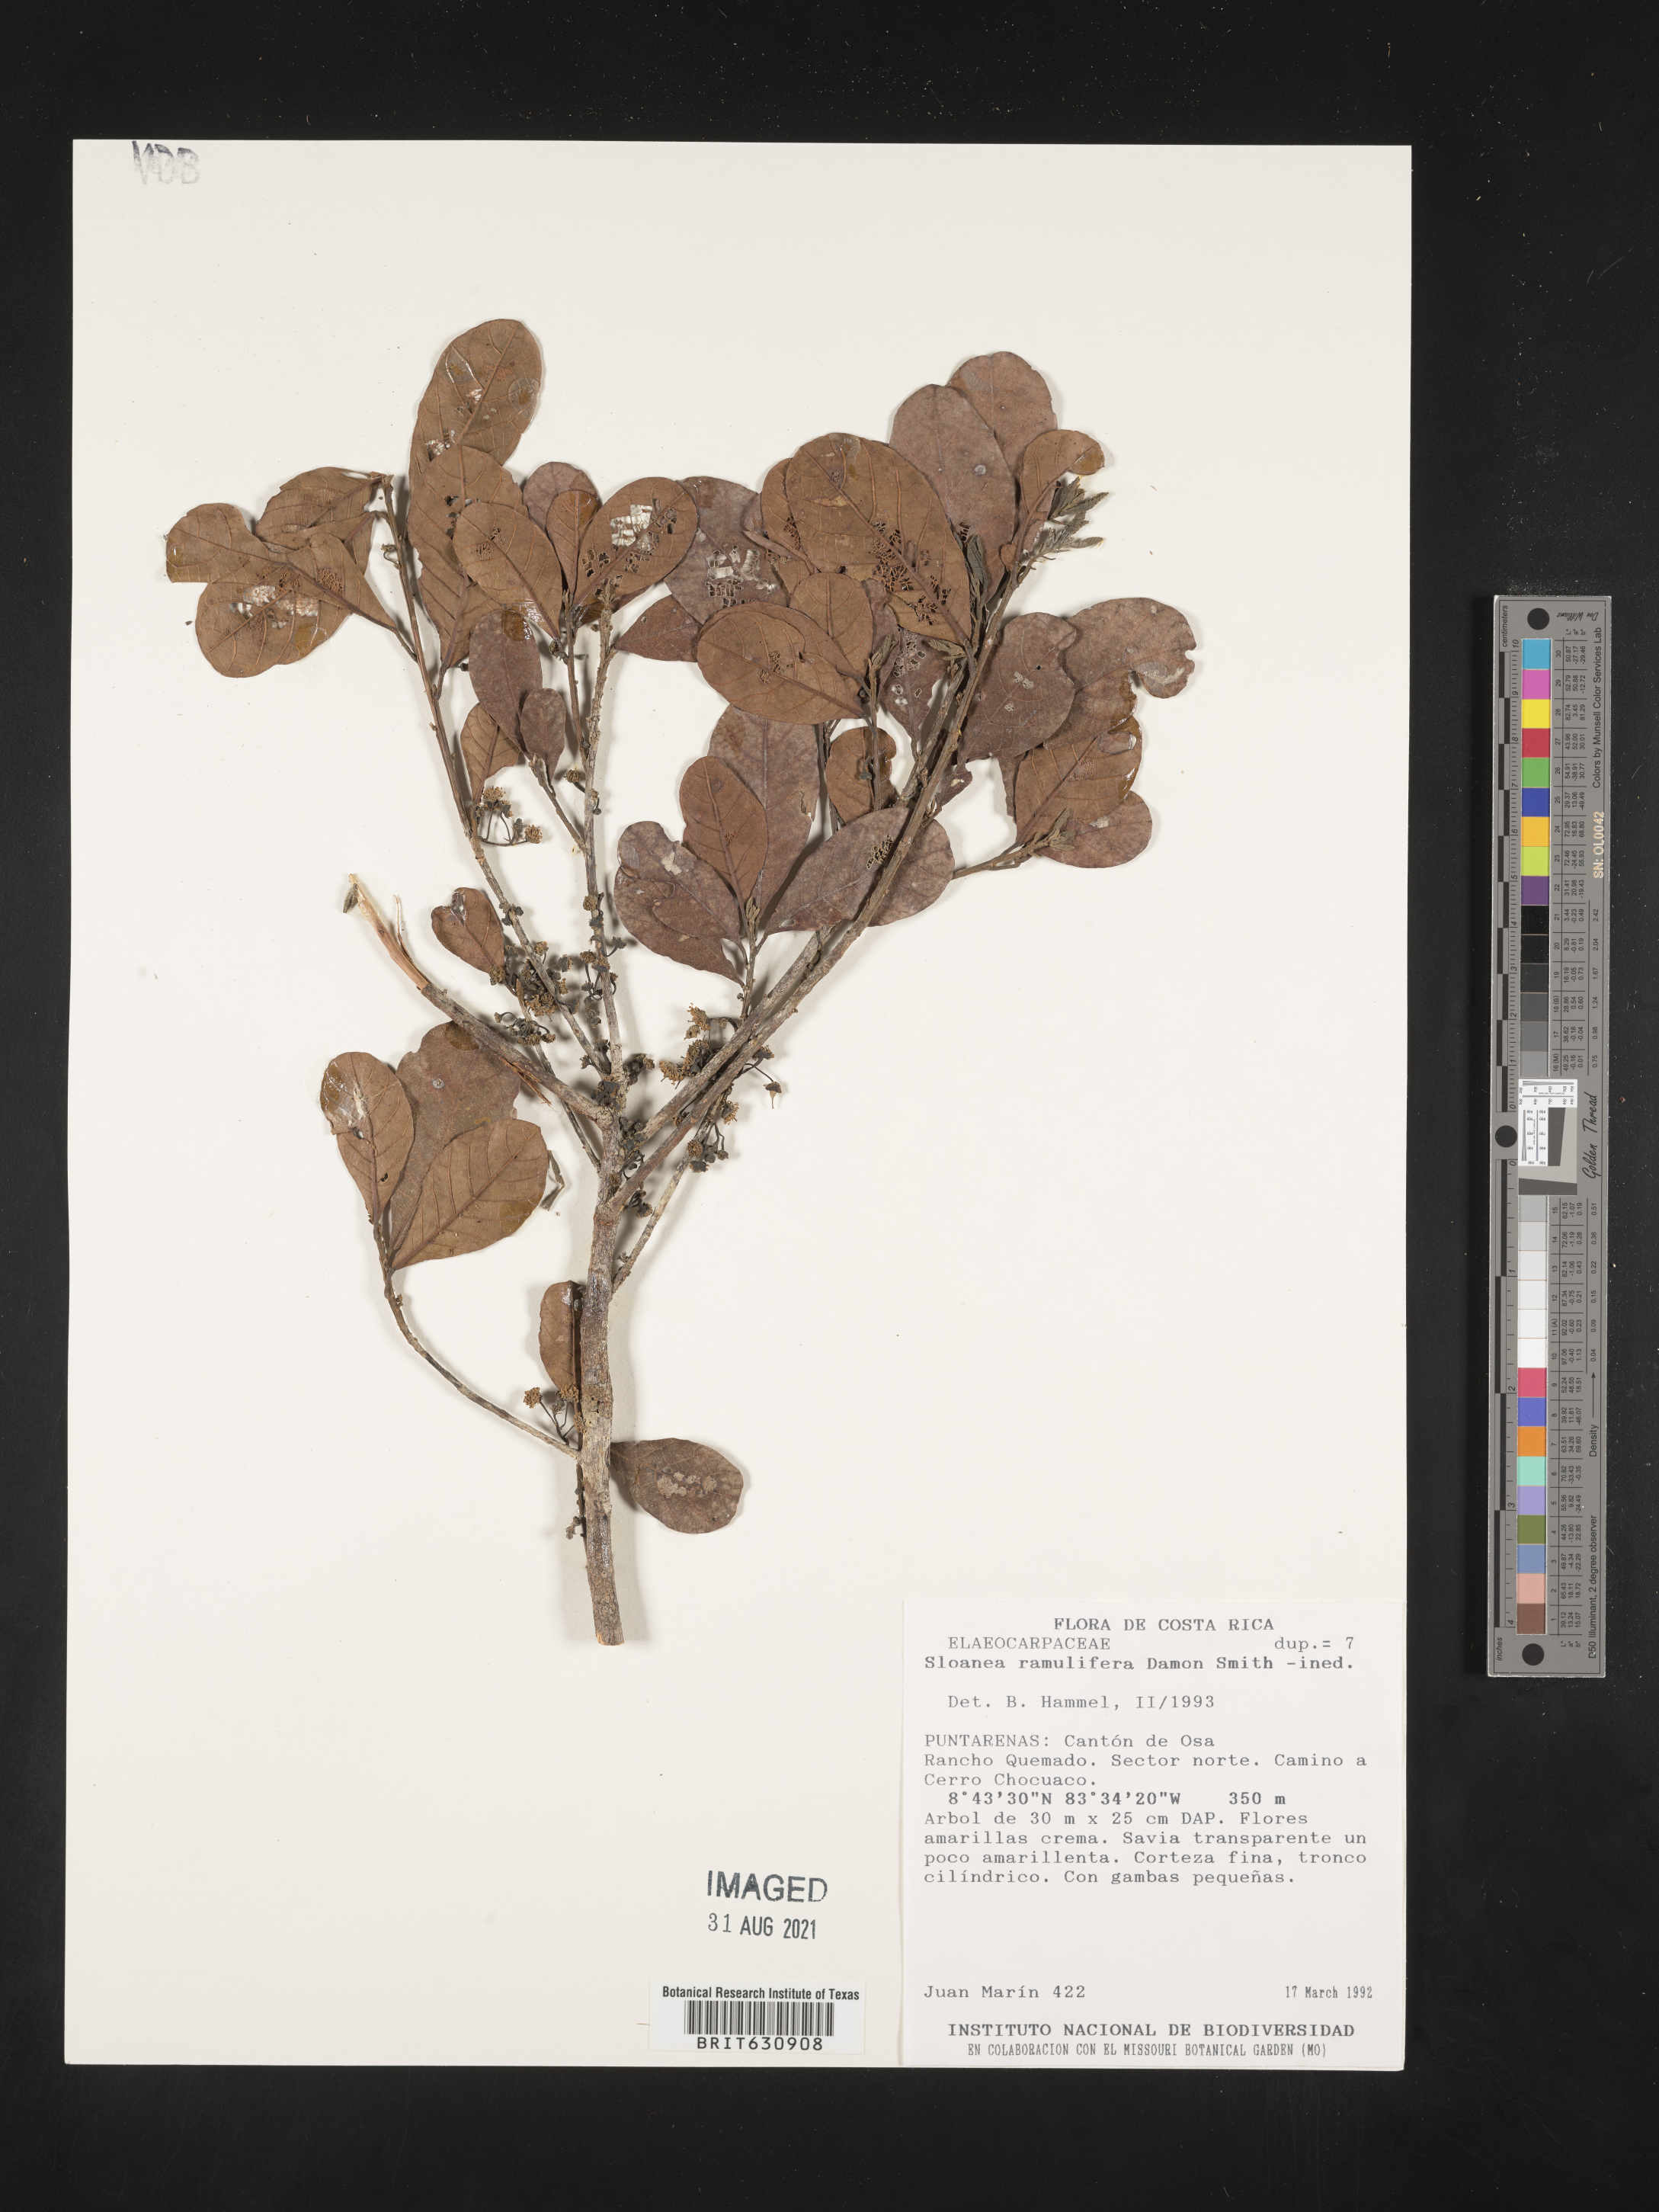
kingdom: Plantae
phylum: Tracheophyta
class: Magnoliopsida
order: Oxalidales
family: Elaeocarpaceae
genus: Sloanea
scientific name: Sloanea
